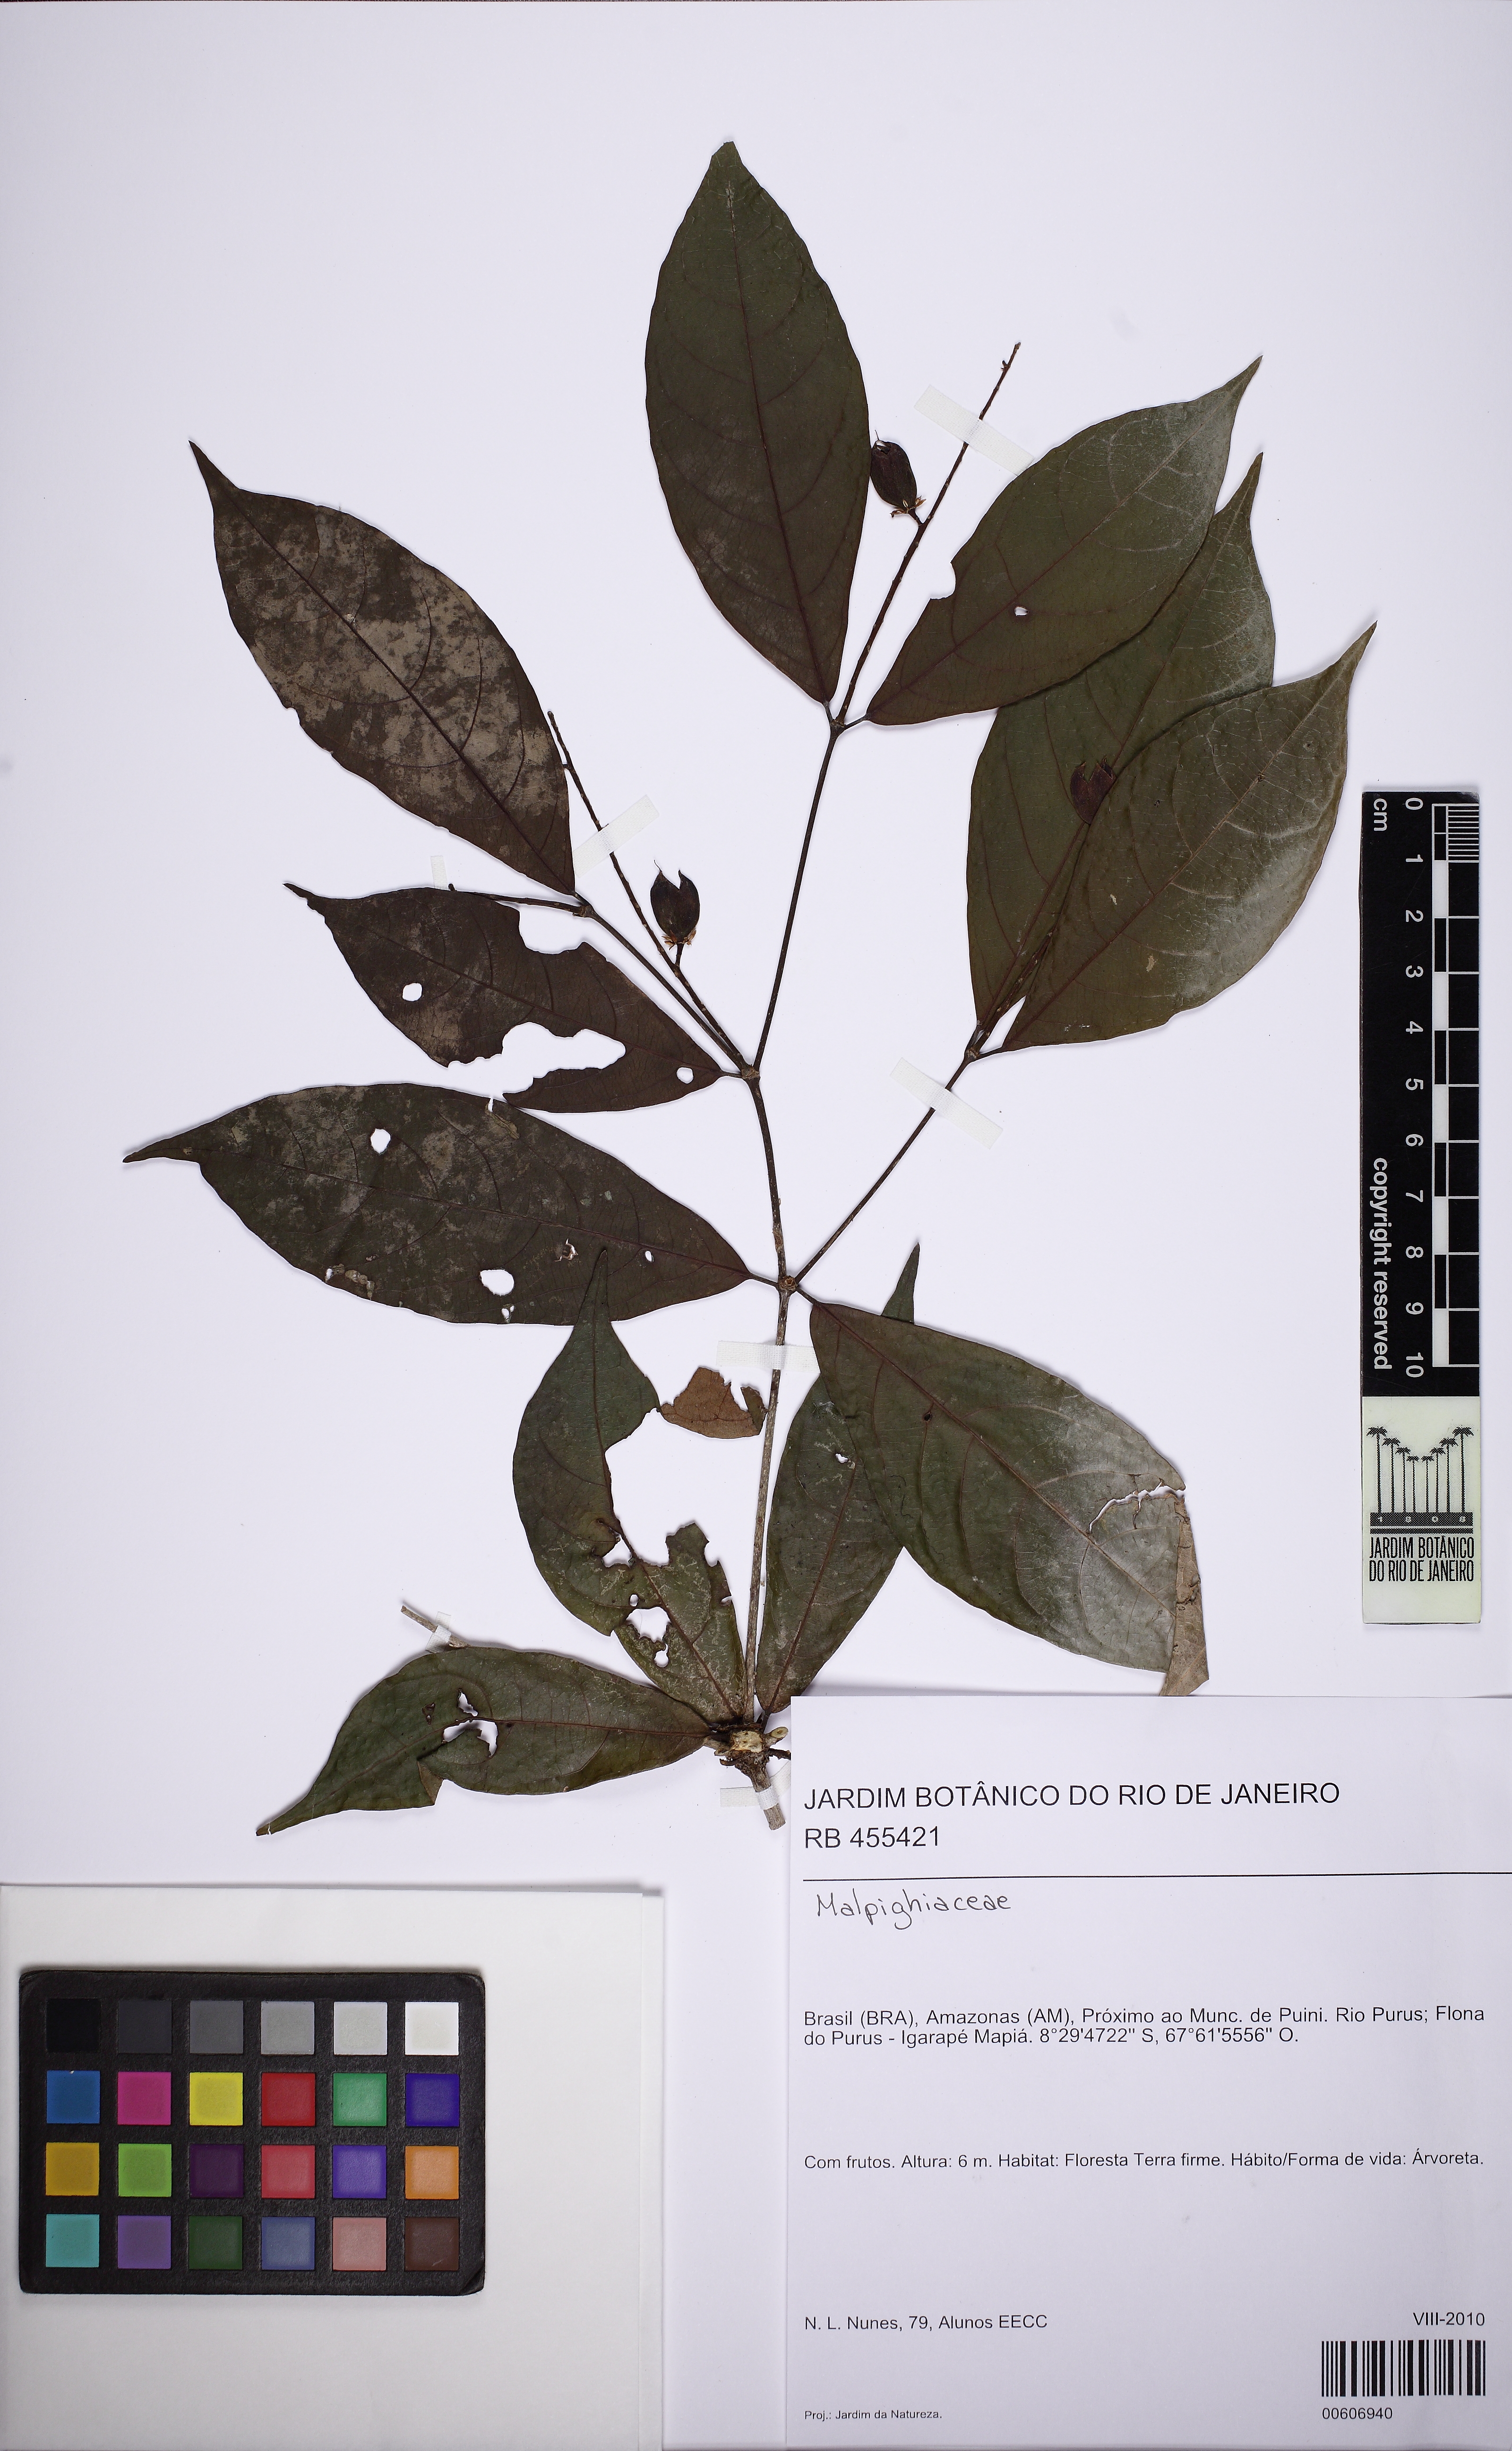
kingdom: Plantae
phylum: Tracheophyta
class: Magnoliopsida
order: Malpighiales
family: Violaceae
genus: Rinorea
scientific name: Rinorea
